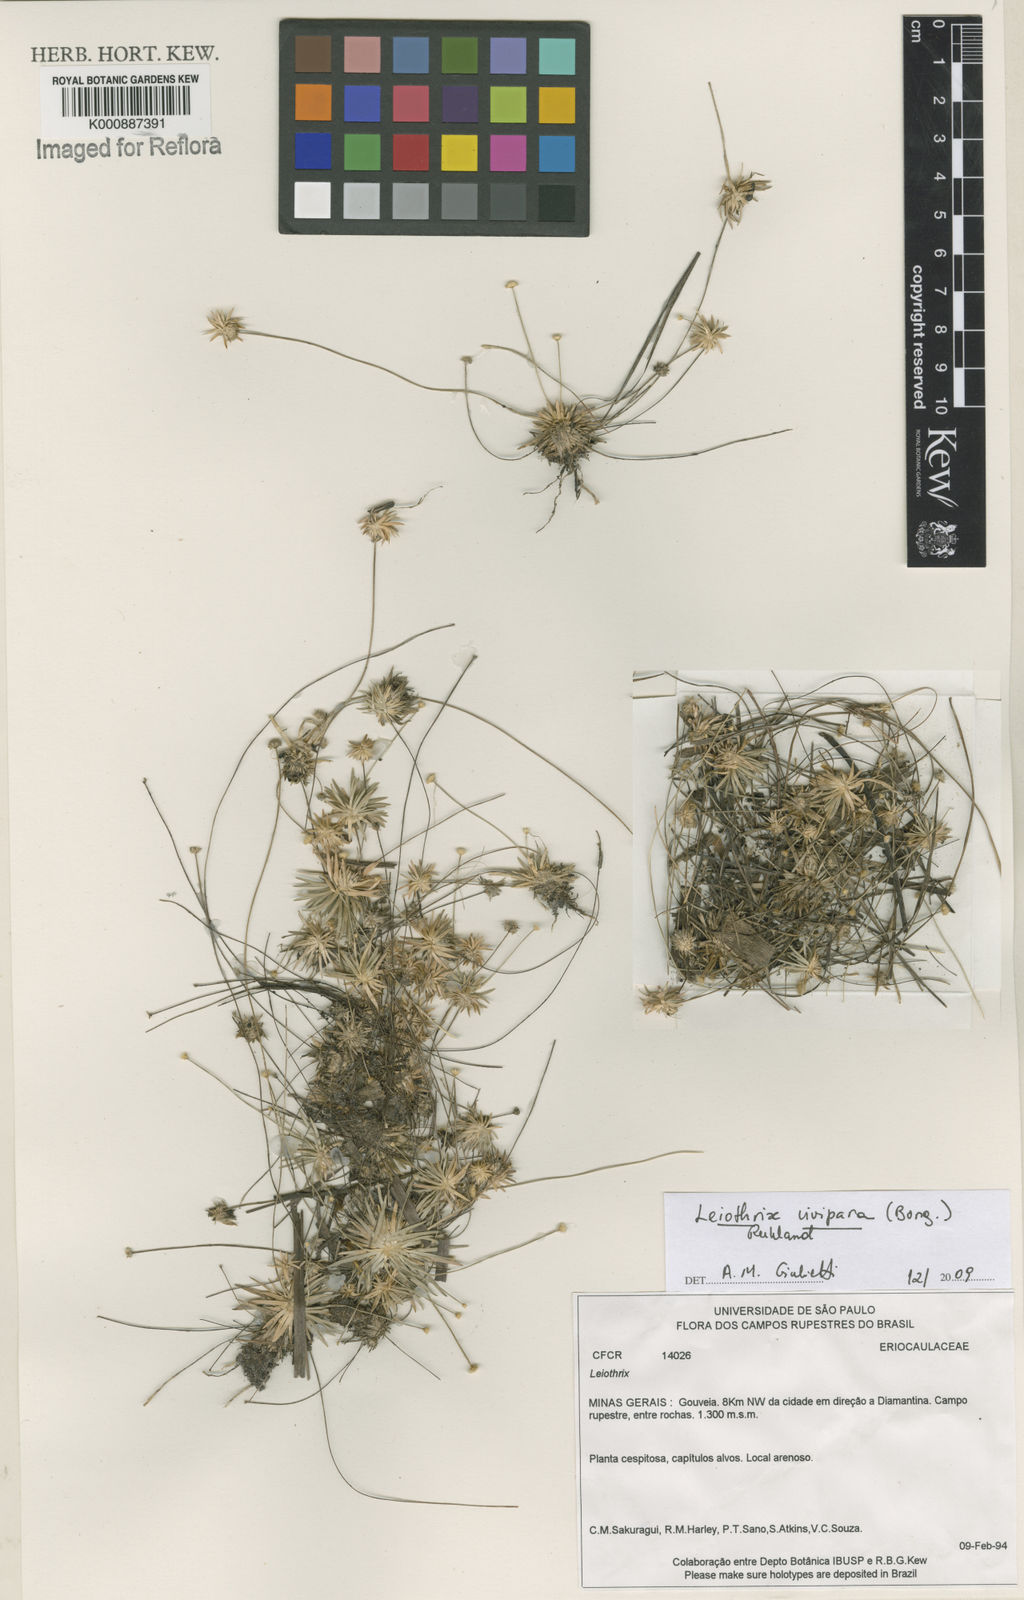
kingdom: Plantae
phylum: Tracheophyta
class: Liliopsida
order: Poales
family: Eriocaulaceae
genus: Leiothrix
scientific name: Leiothrix
